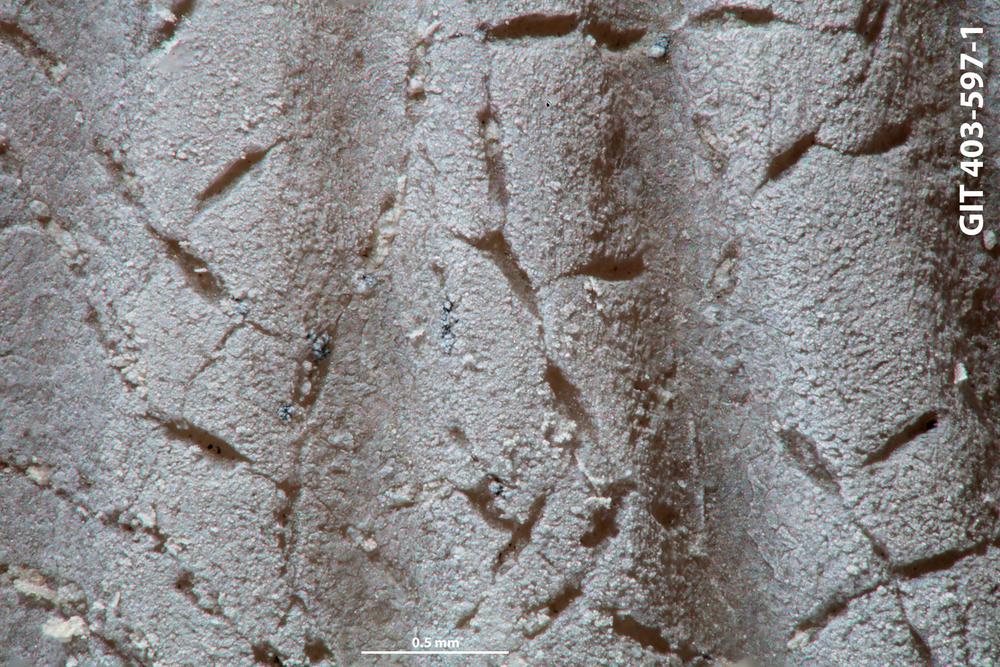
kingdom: Animalia
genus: Pinaceocladichnus
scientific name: Pinaceocladichnus
